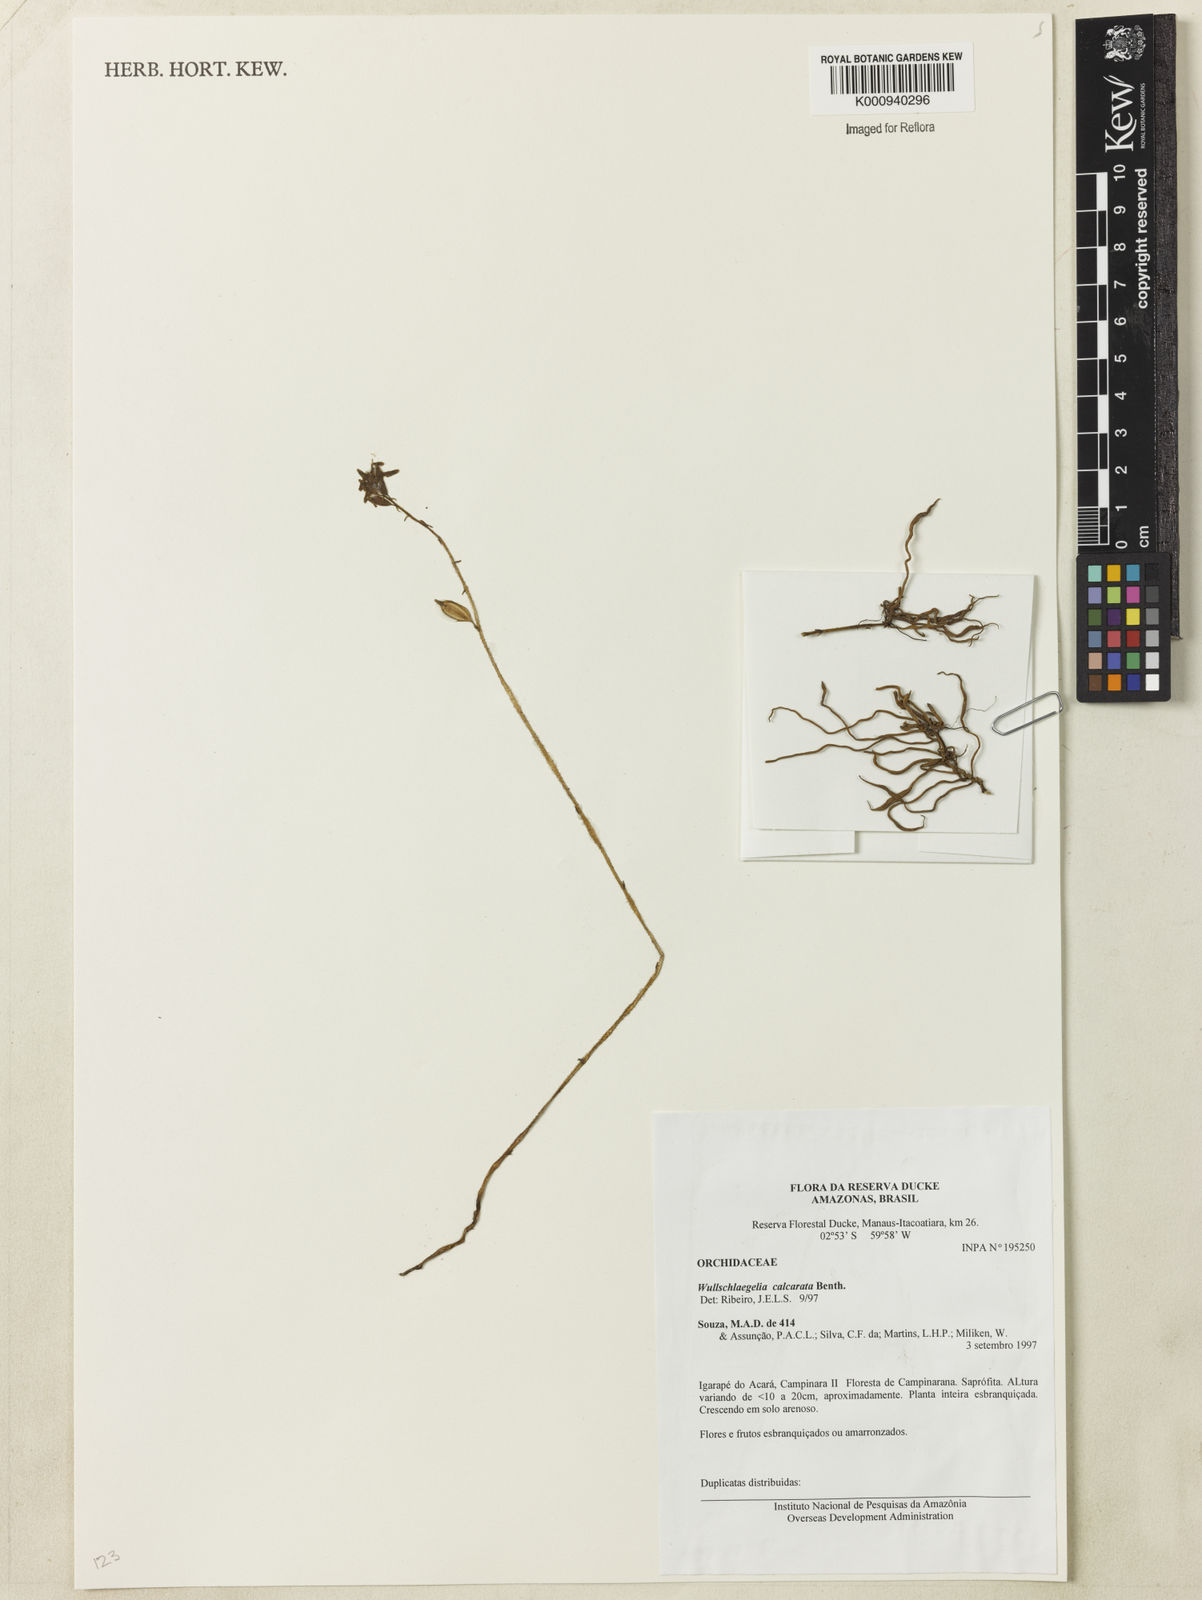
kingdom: Plantae
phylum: Tracheophyta
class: Liliopsida
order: Asparagales
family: Orchidaceae
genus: Wullschlaegelia
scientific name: Wullschlaegelia calcarata
